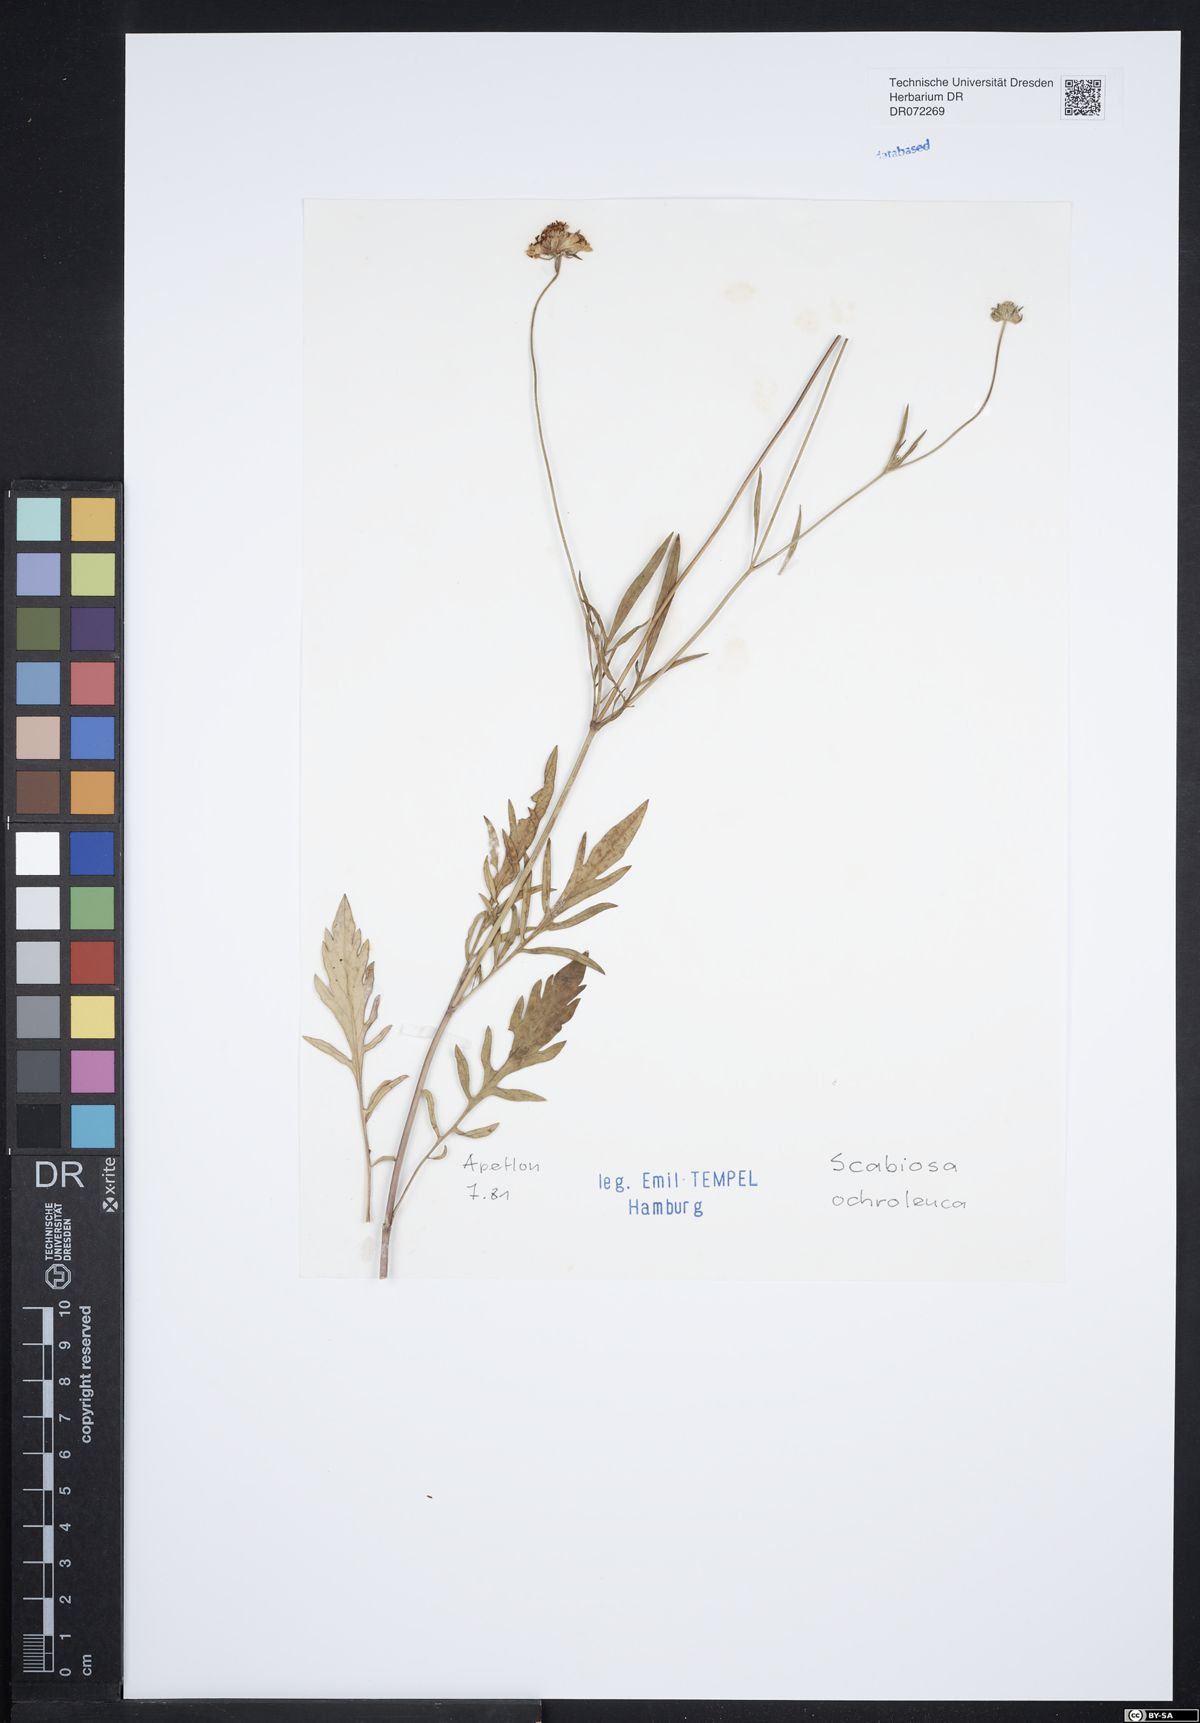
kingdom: Plantae
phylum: Tracheophyta
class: Magnoliopsida
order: Dipsacales
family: Caprifoliaceae
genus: Scabiosa
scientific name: Scabiosa ochroleuca
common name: Cream pincushions
